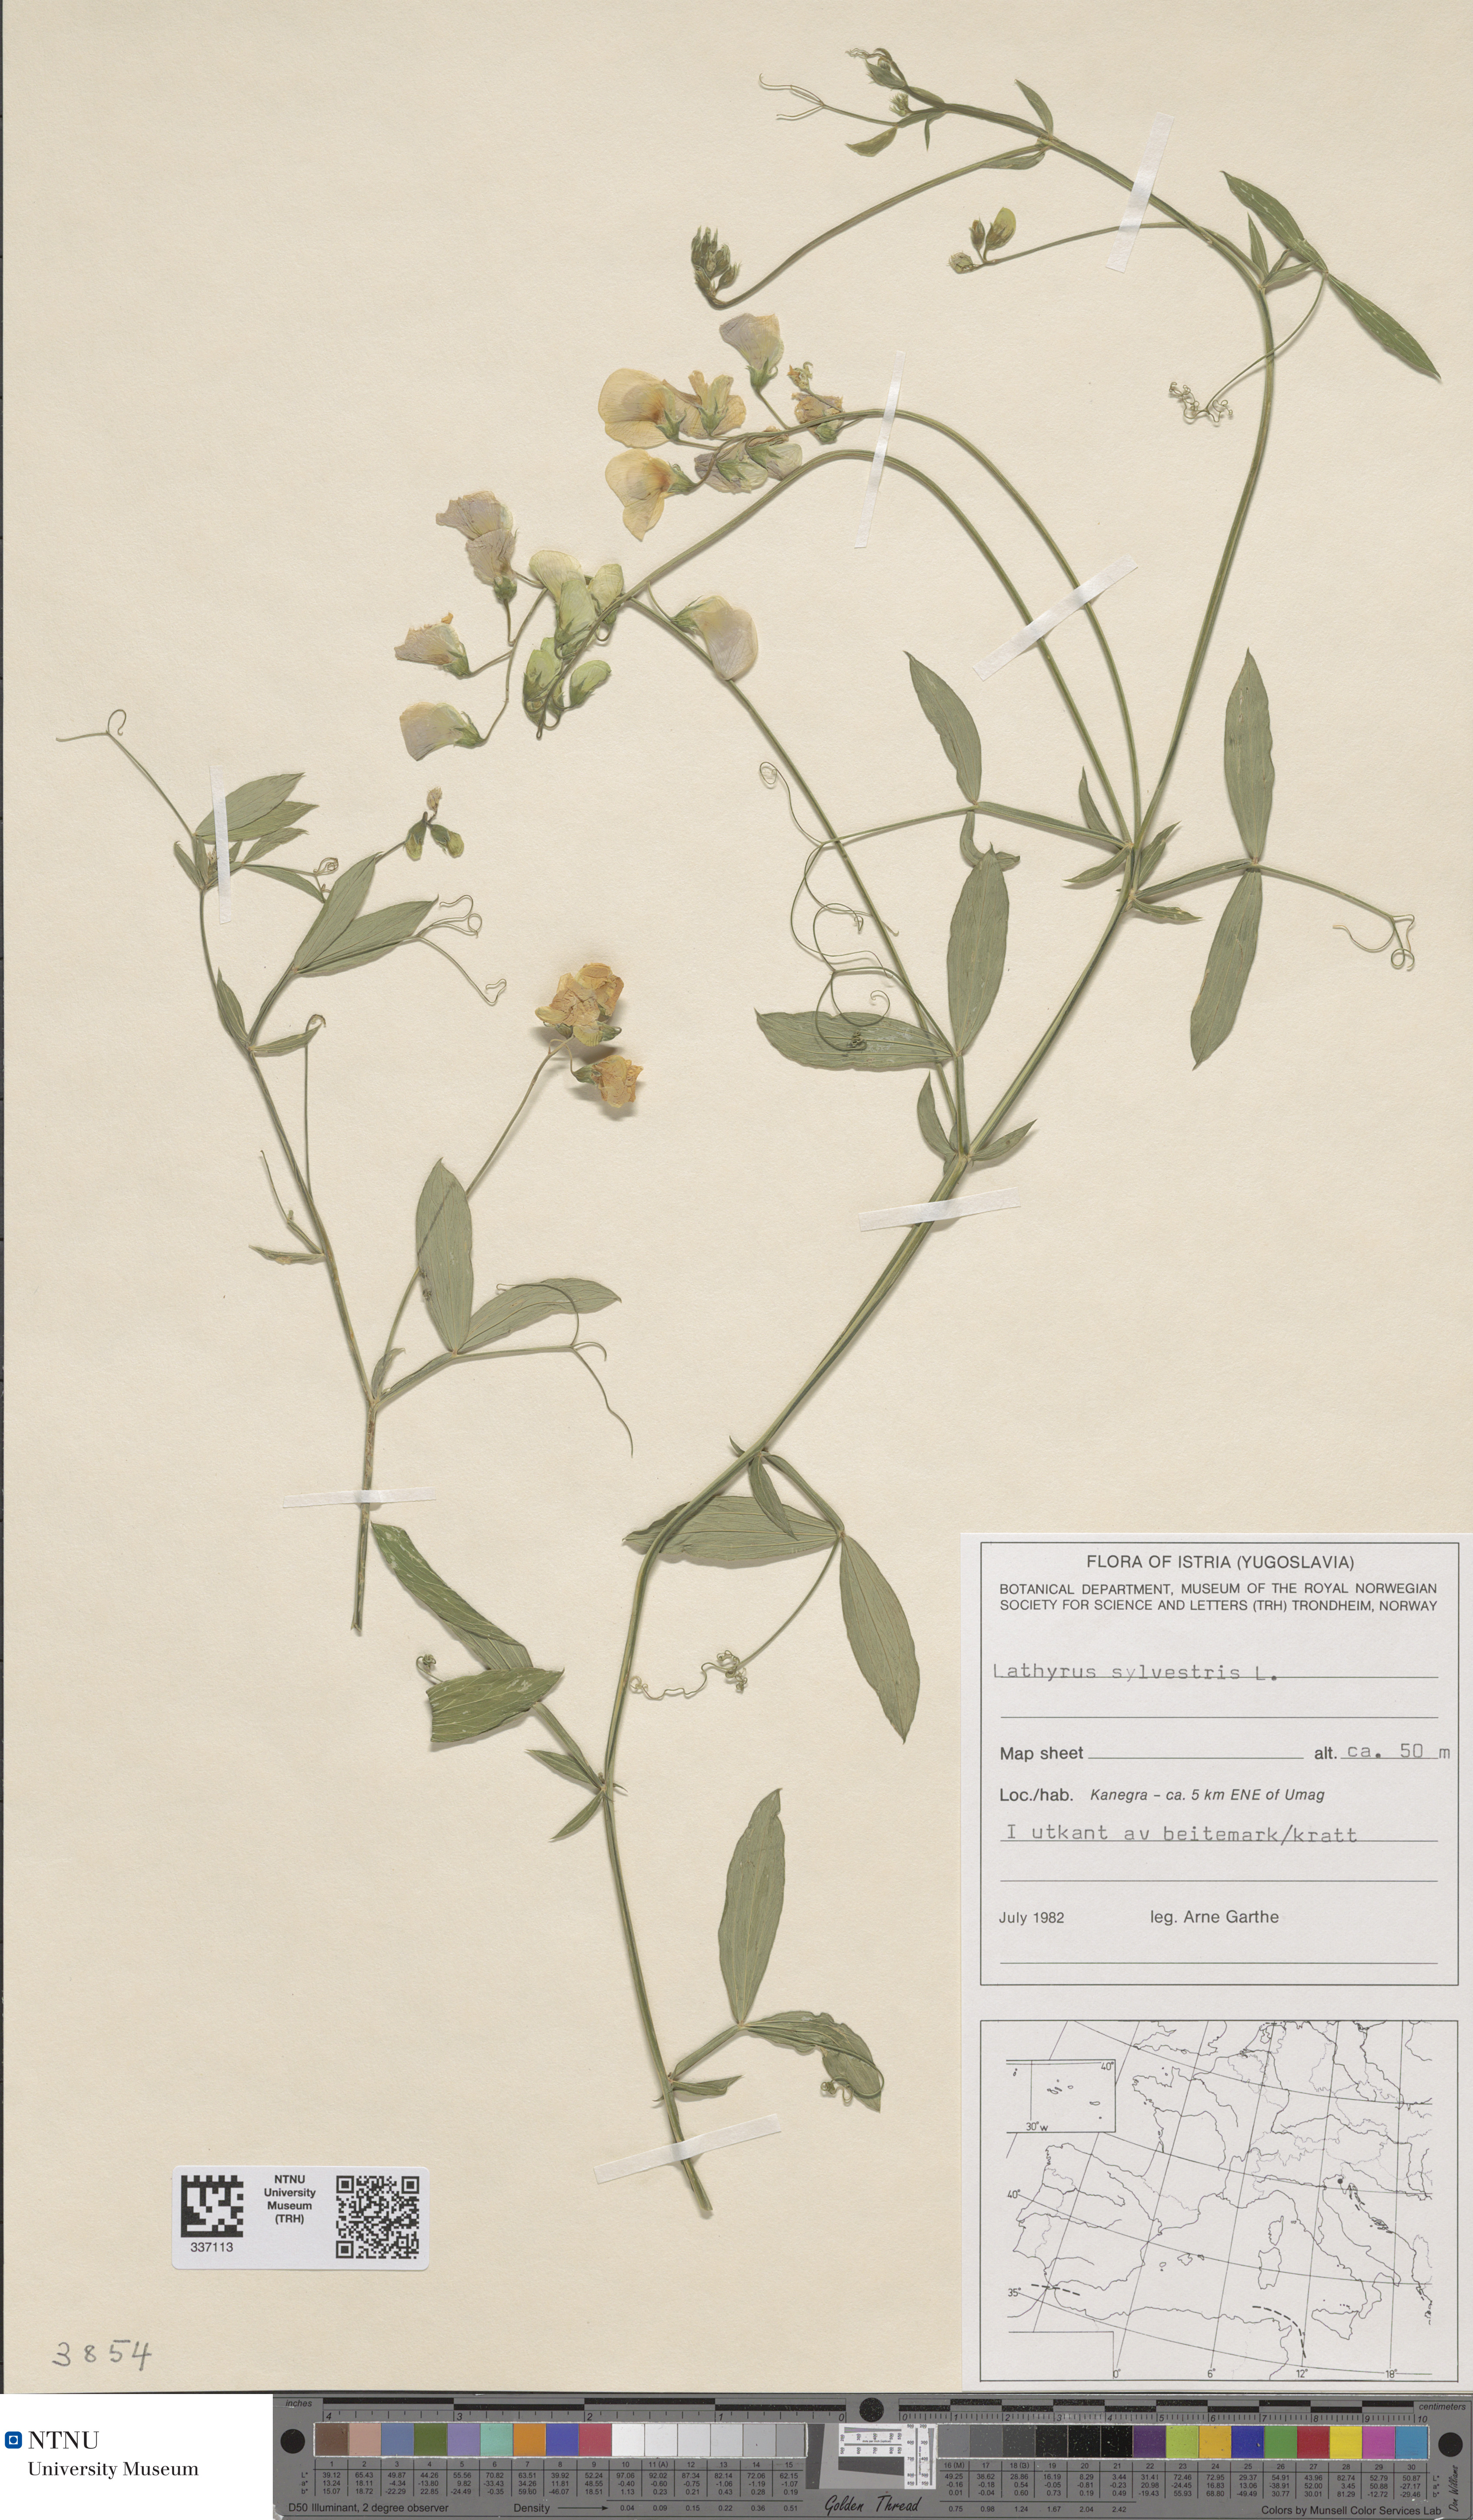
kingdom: Plantae
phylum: Tracheophyta
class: Magnoliopsida
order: Fabales
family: Fabaceae
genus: Lathyrus
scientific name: Lathyrus sylvestris
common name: Flat pea
